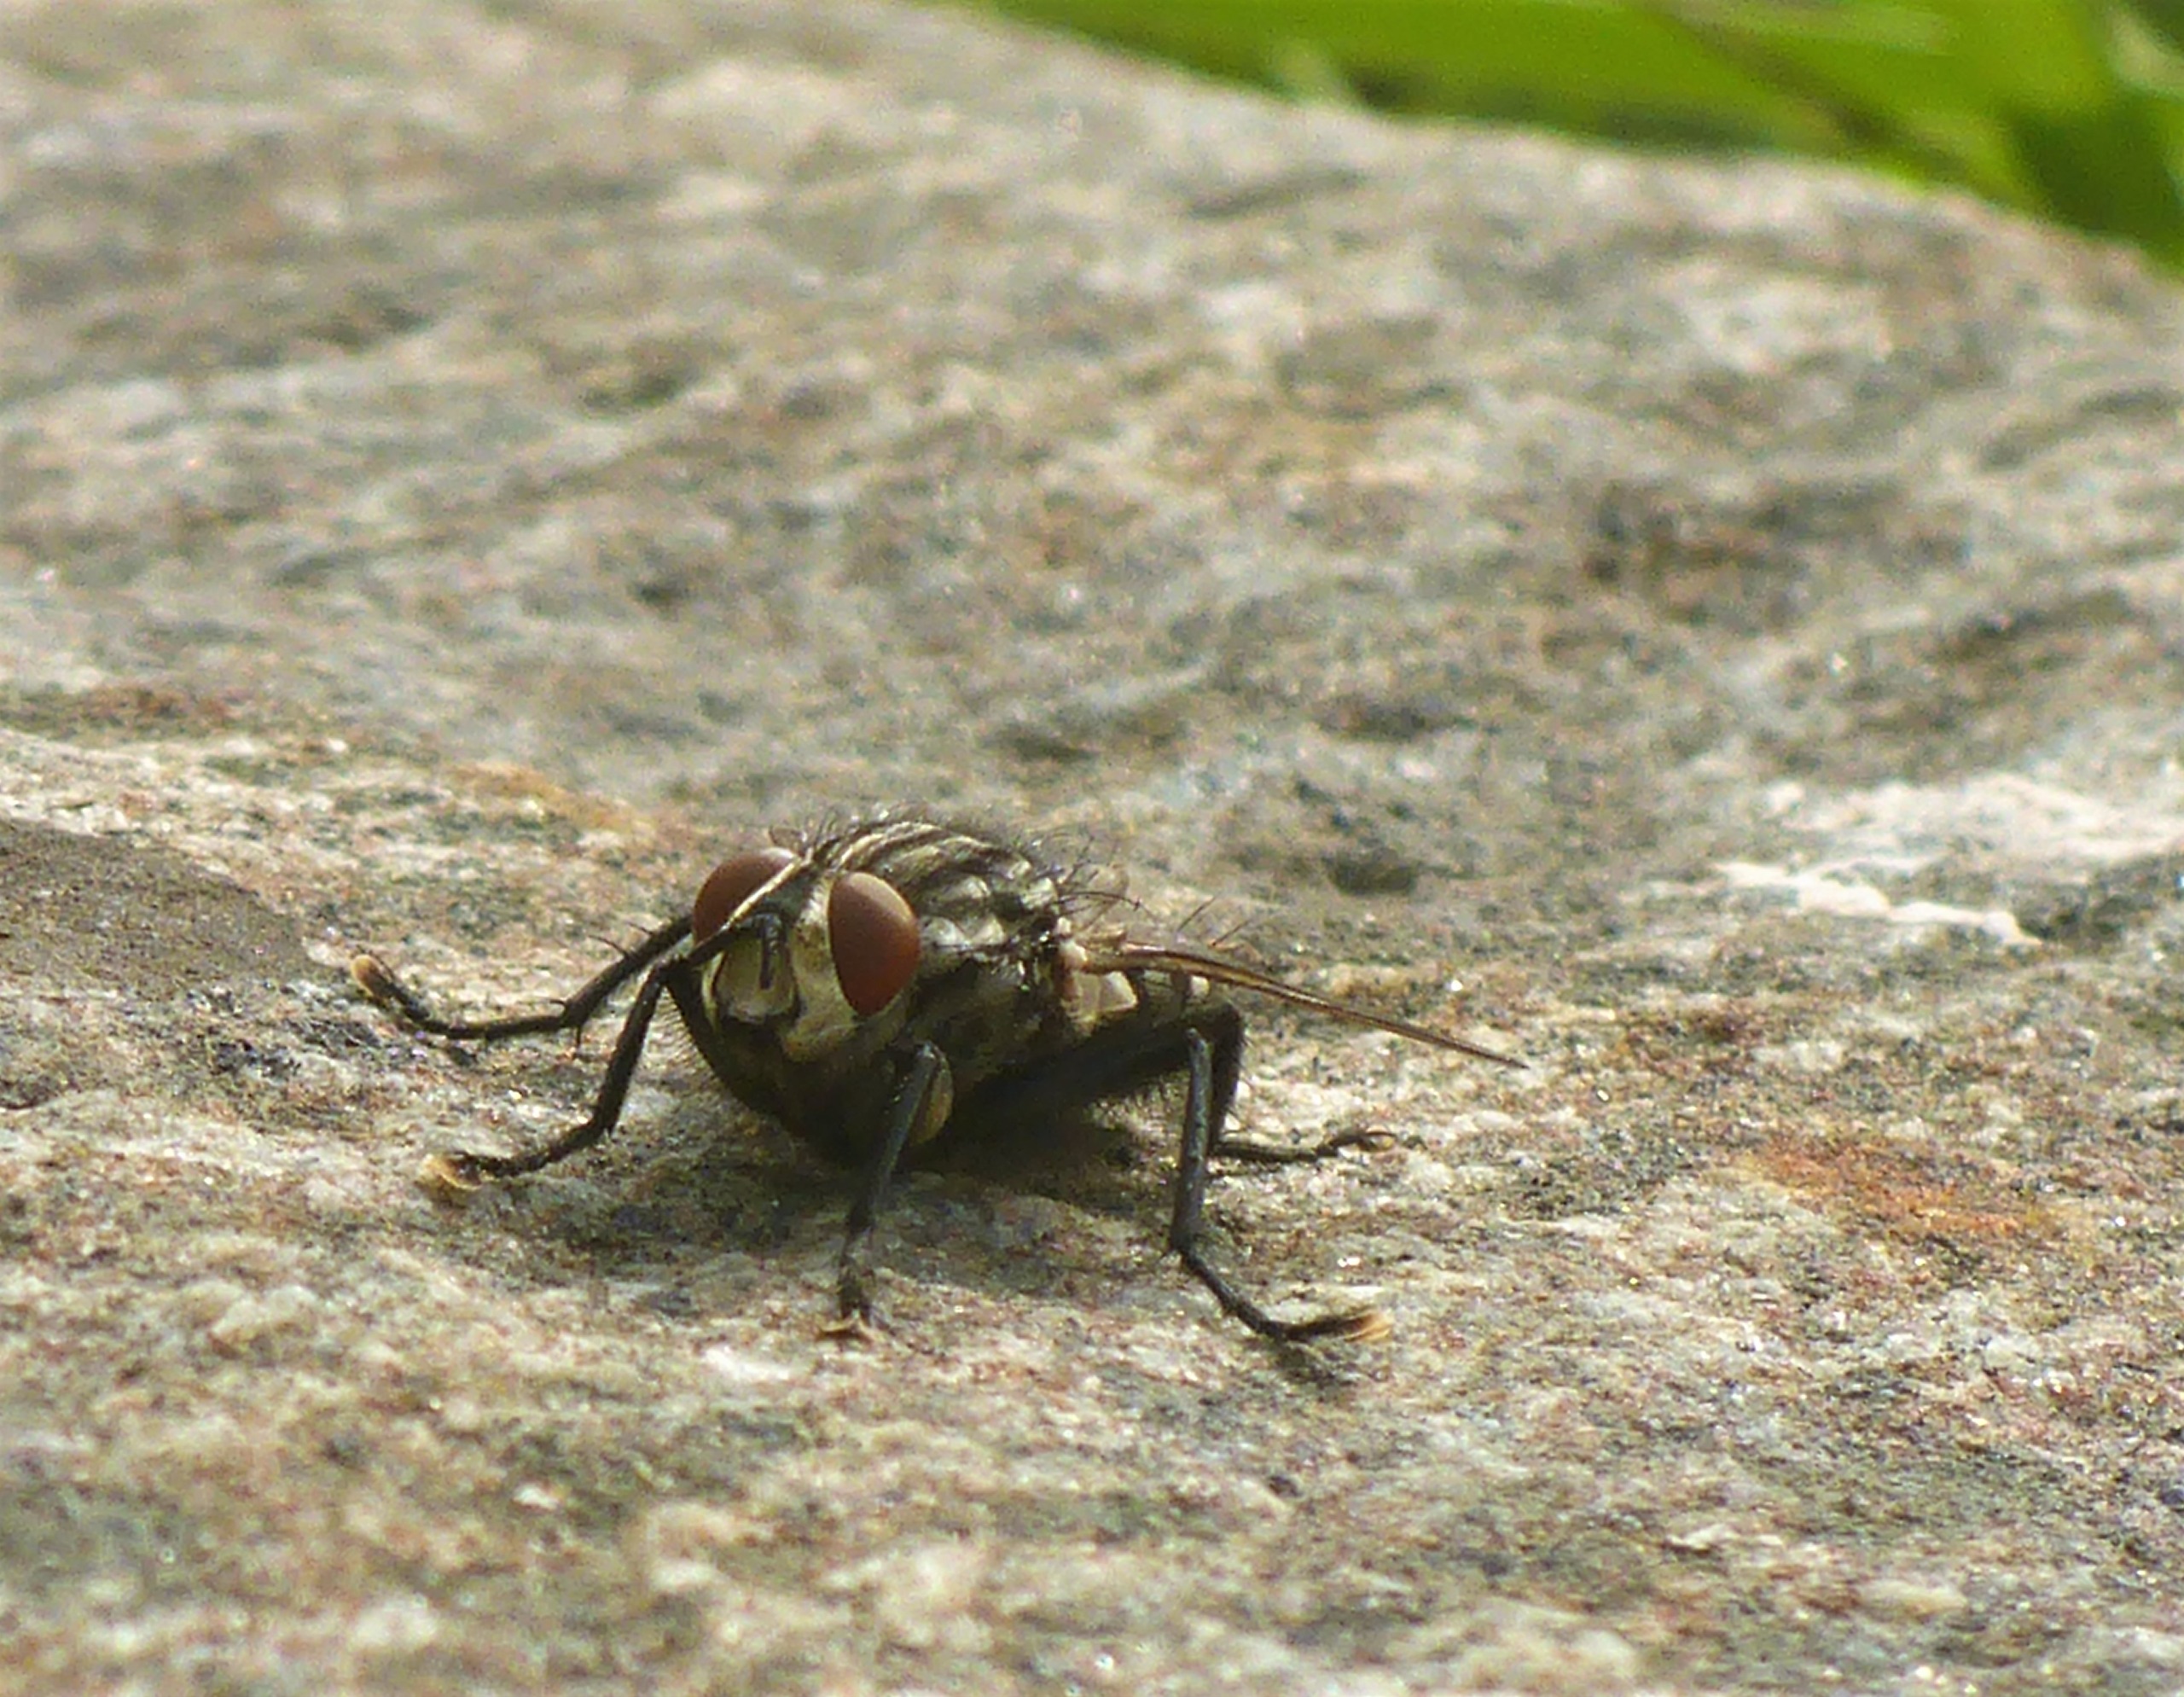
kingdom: Animalia
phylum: Arthropoda
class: Insecta
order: Diptera
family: Sarcophagidae
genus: Sarcophaga
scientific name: Sarcophaga
